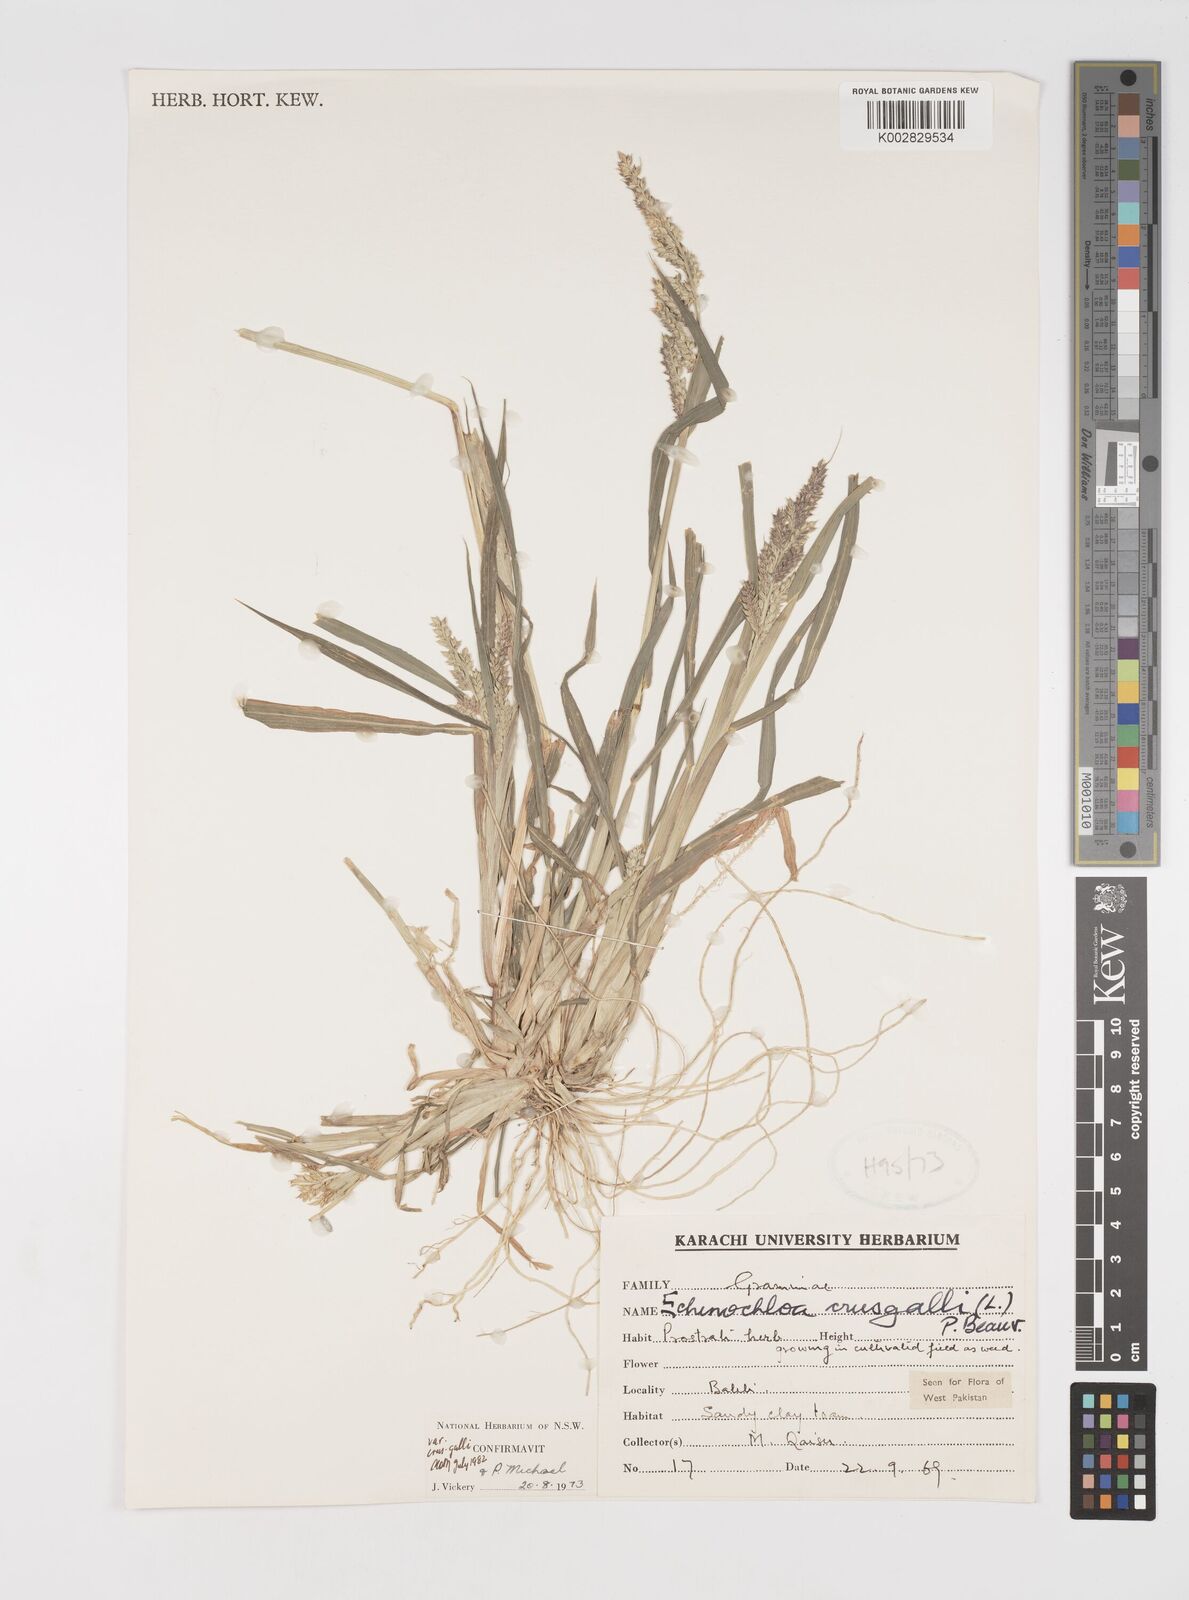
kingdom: Plantae
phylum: Tracheophyta
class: Liliopsida
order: Poales
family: Poaceae
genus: Echinochloa
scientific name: Echinochloa crus-galli
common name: Cockspur
